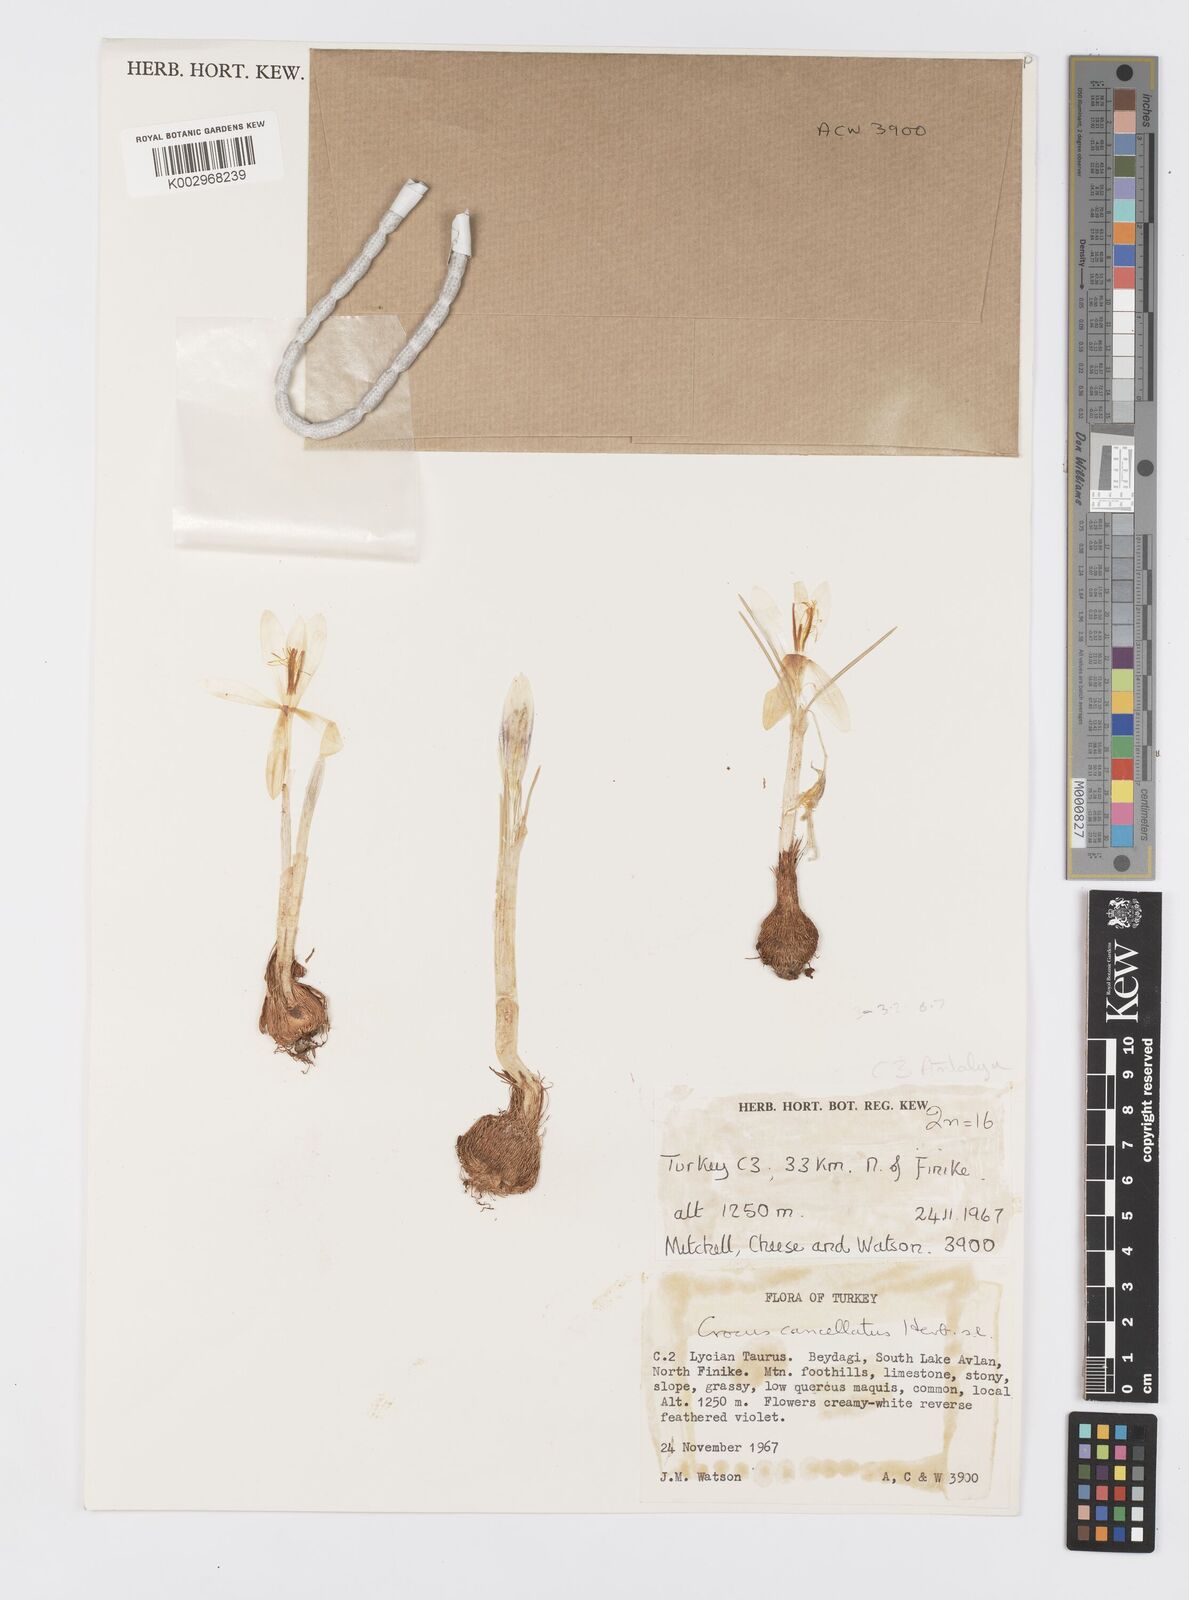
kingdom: Plantae
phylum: Tracheophyta
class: Liliopsida
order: Asparagales
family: Iridaceae
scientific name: Iridaceae
